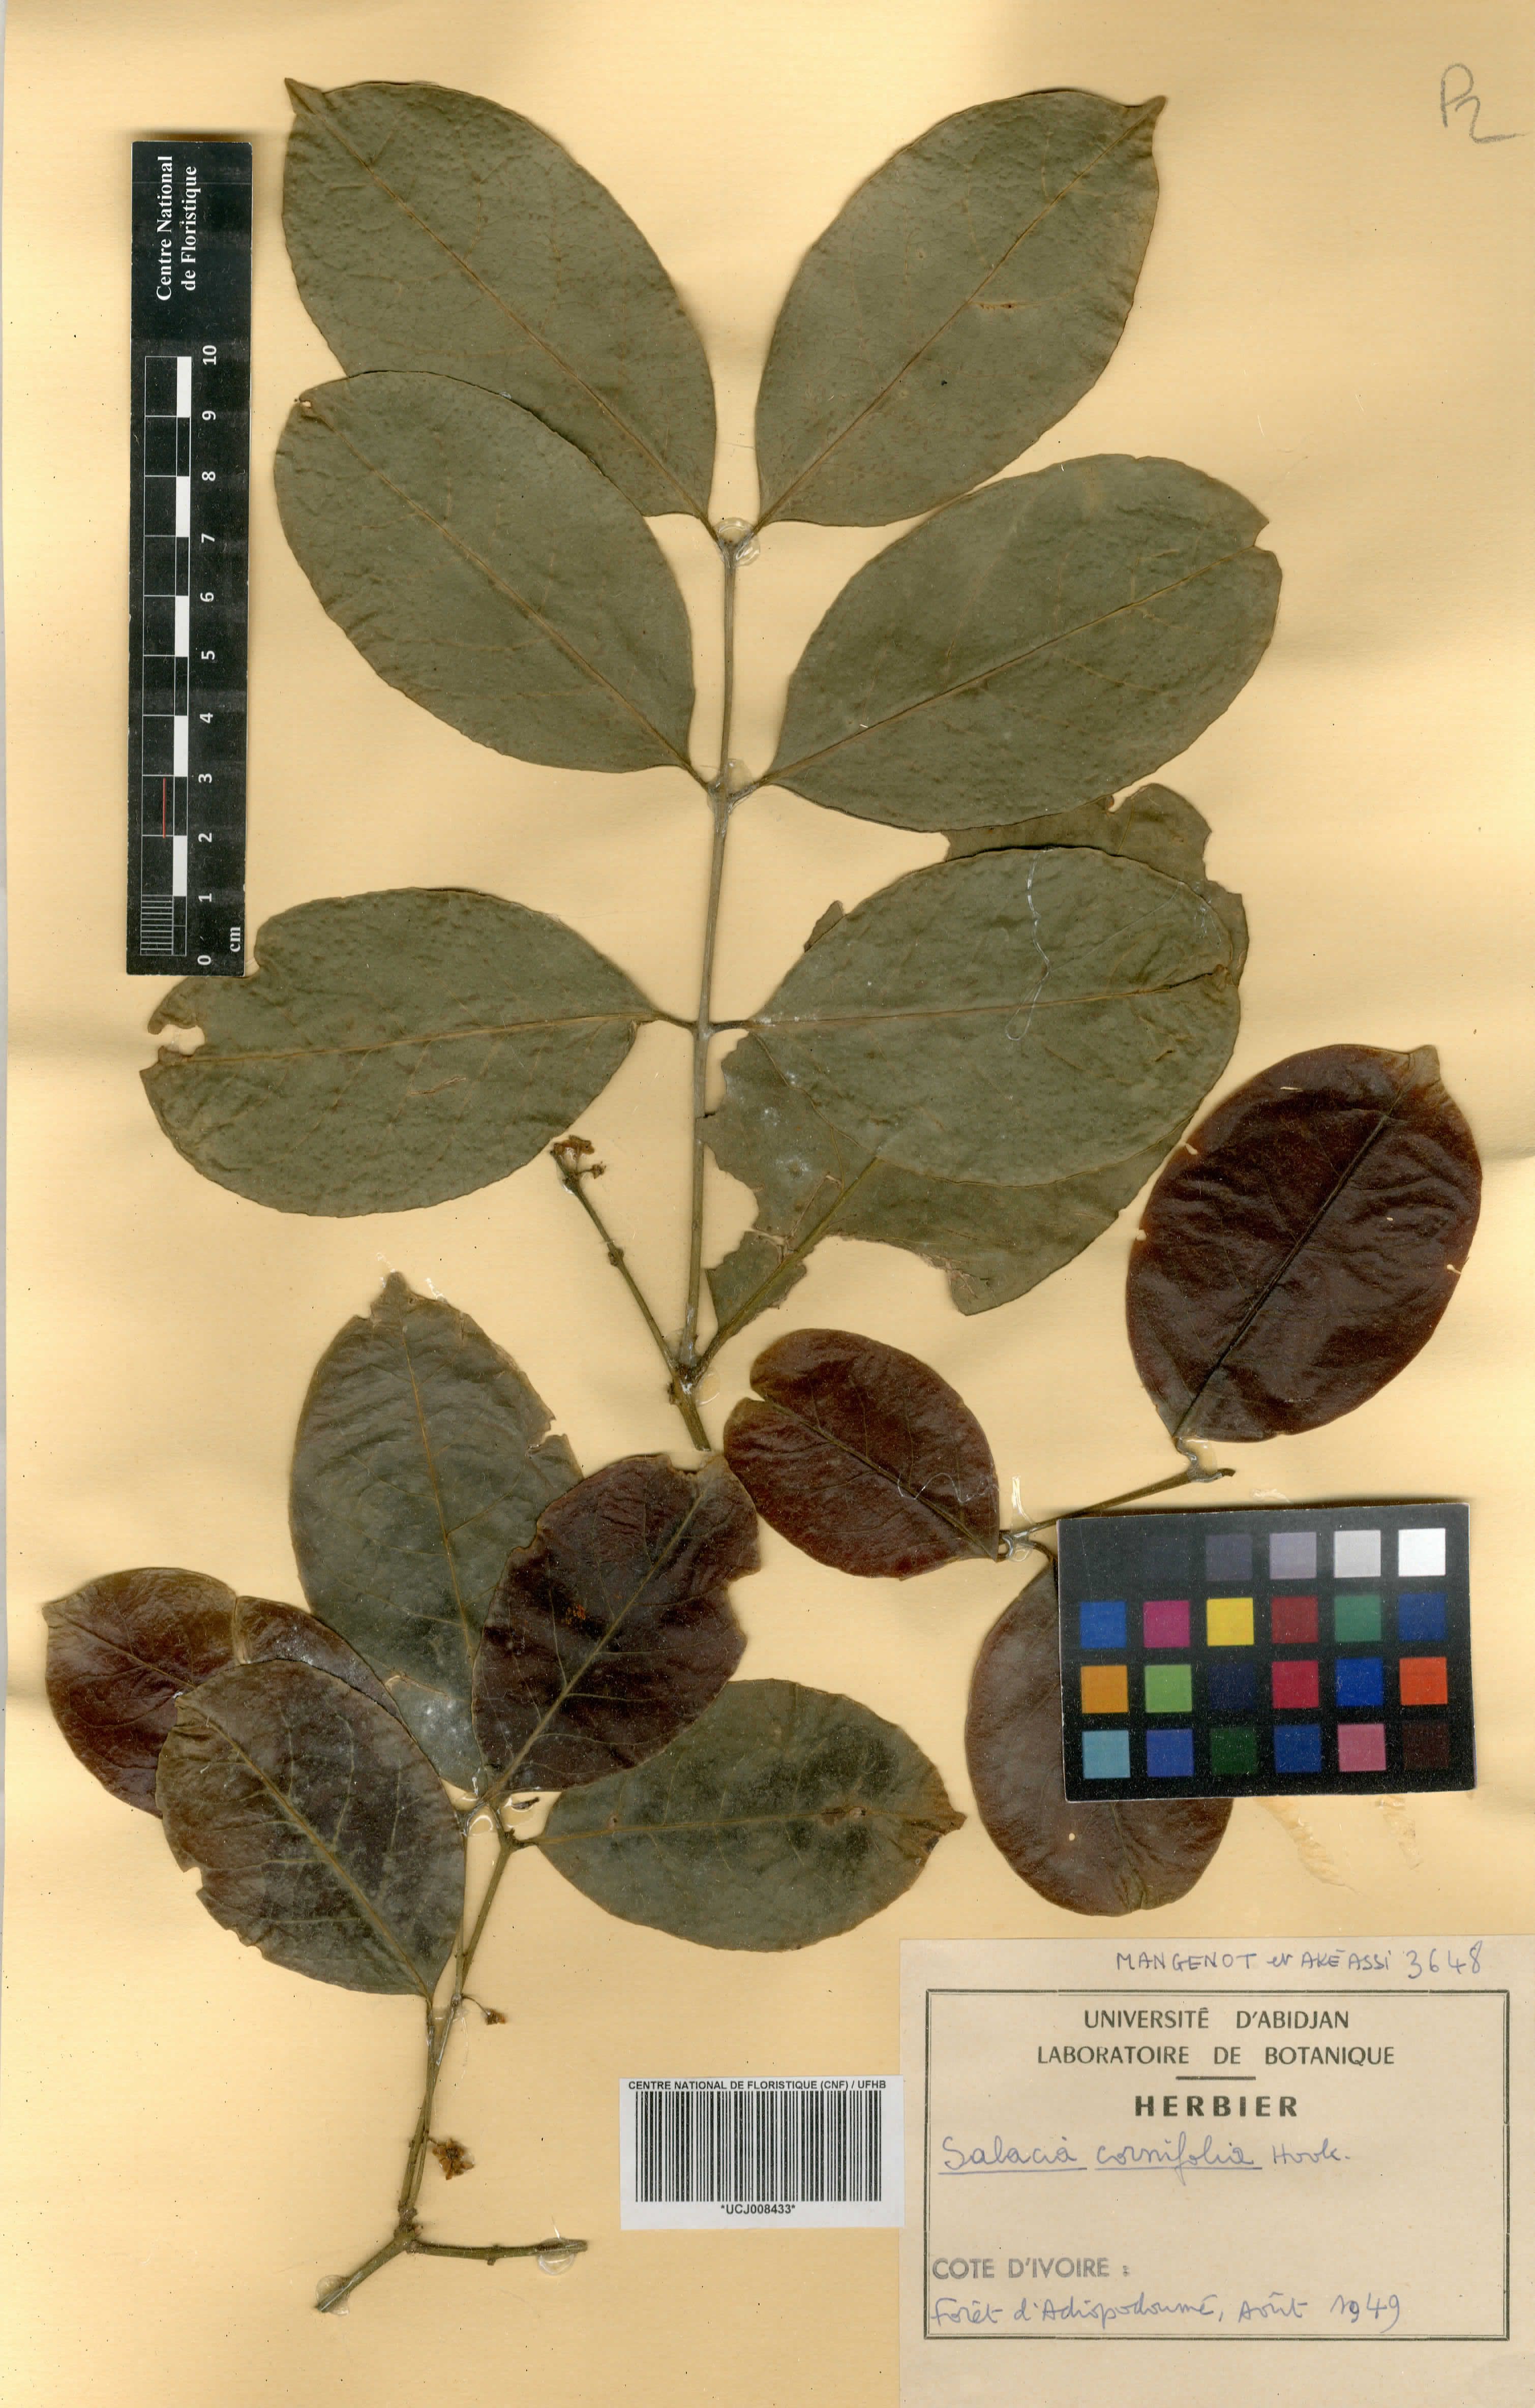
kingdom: Plantae
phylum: Tracheophyta
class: Magnoliopsida
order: Celastrales
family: Celastraceae
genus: Salacia
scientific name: Salacia cornifolia
